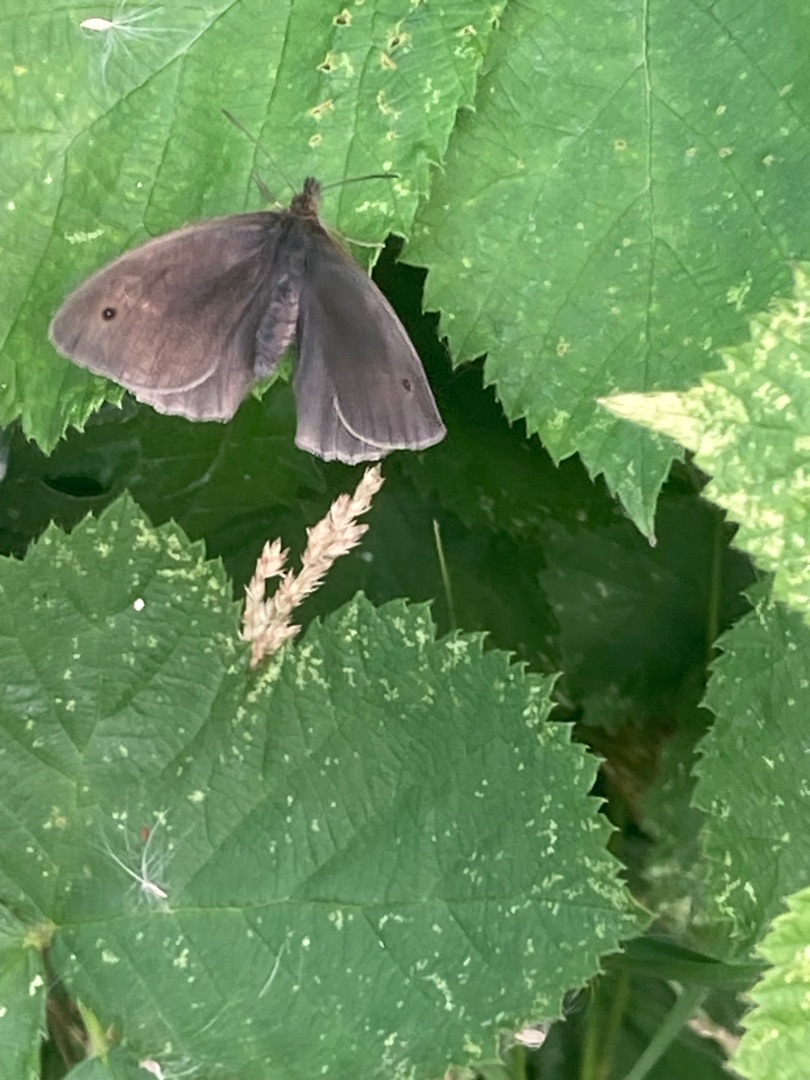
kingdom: Animalia
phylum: Arthropoda
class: Insecta
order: Lepidoptera
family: Nymphalidae
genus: Maniola
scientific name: Maniola jurtina
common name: Græsrandøje
